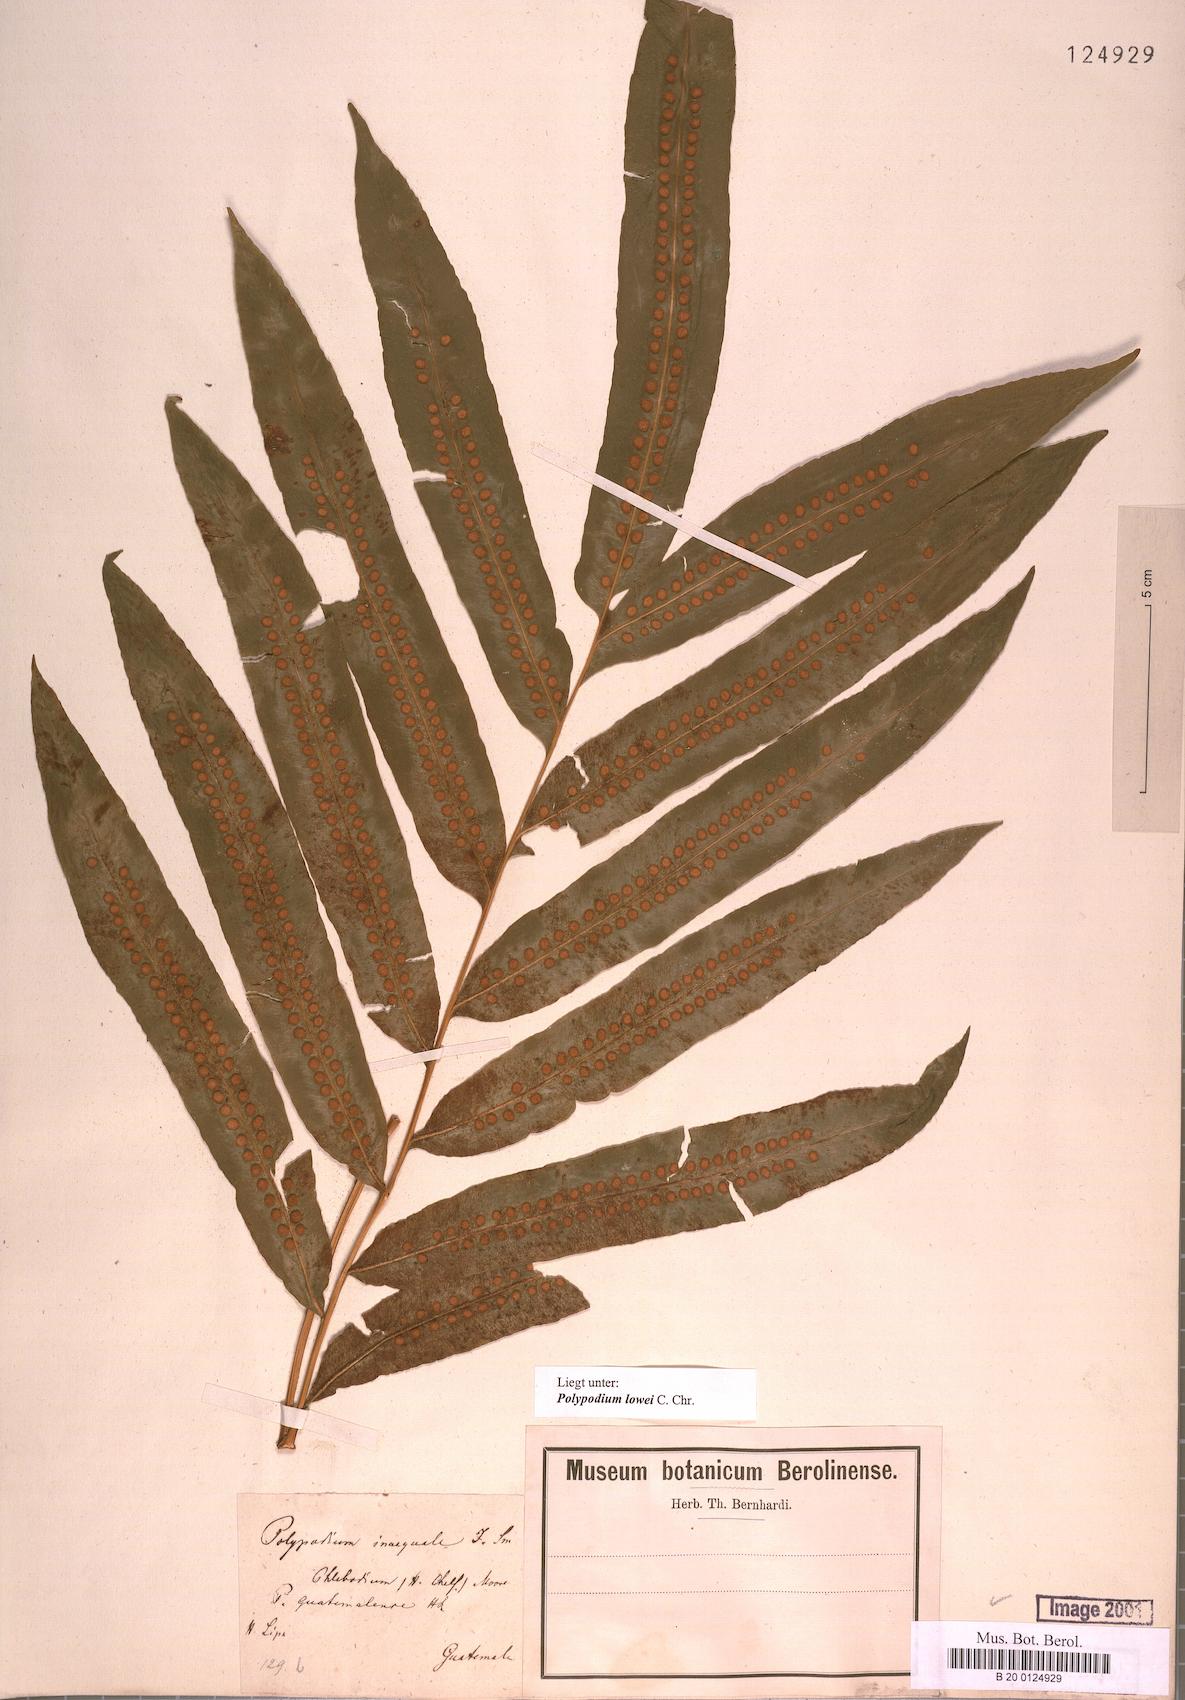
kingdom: Plantae
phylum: Tracheophyta
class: Polypodiopsida
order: Polypodiales
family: Polypodiaceae
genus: Polypodium
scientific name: Polypodium pleurosorum
